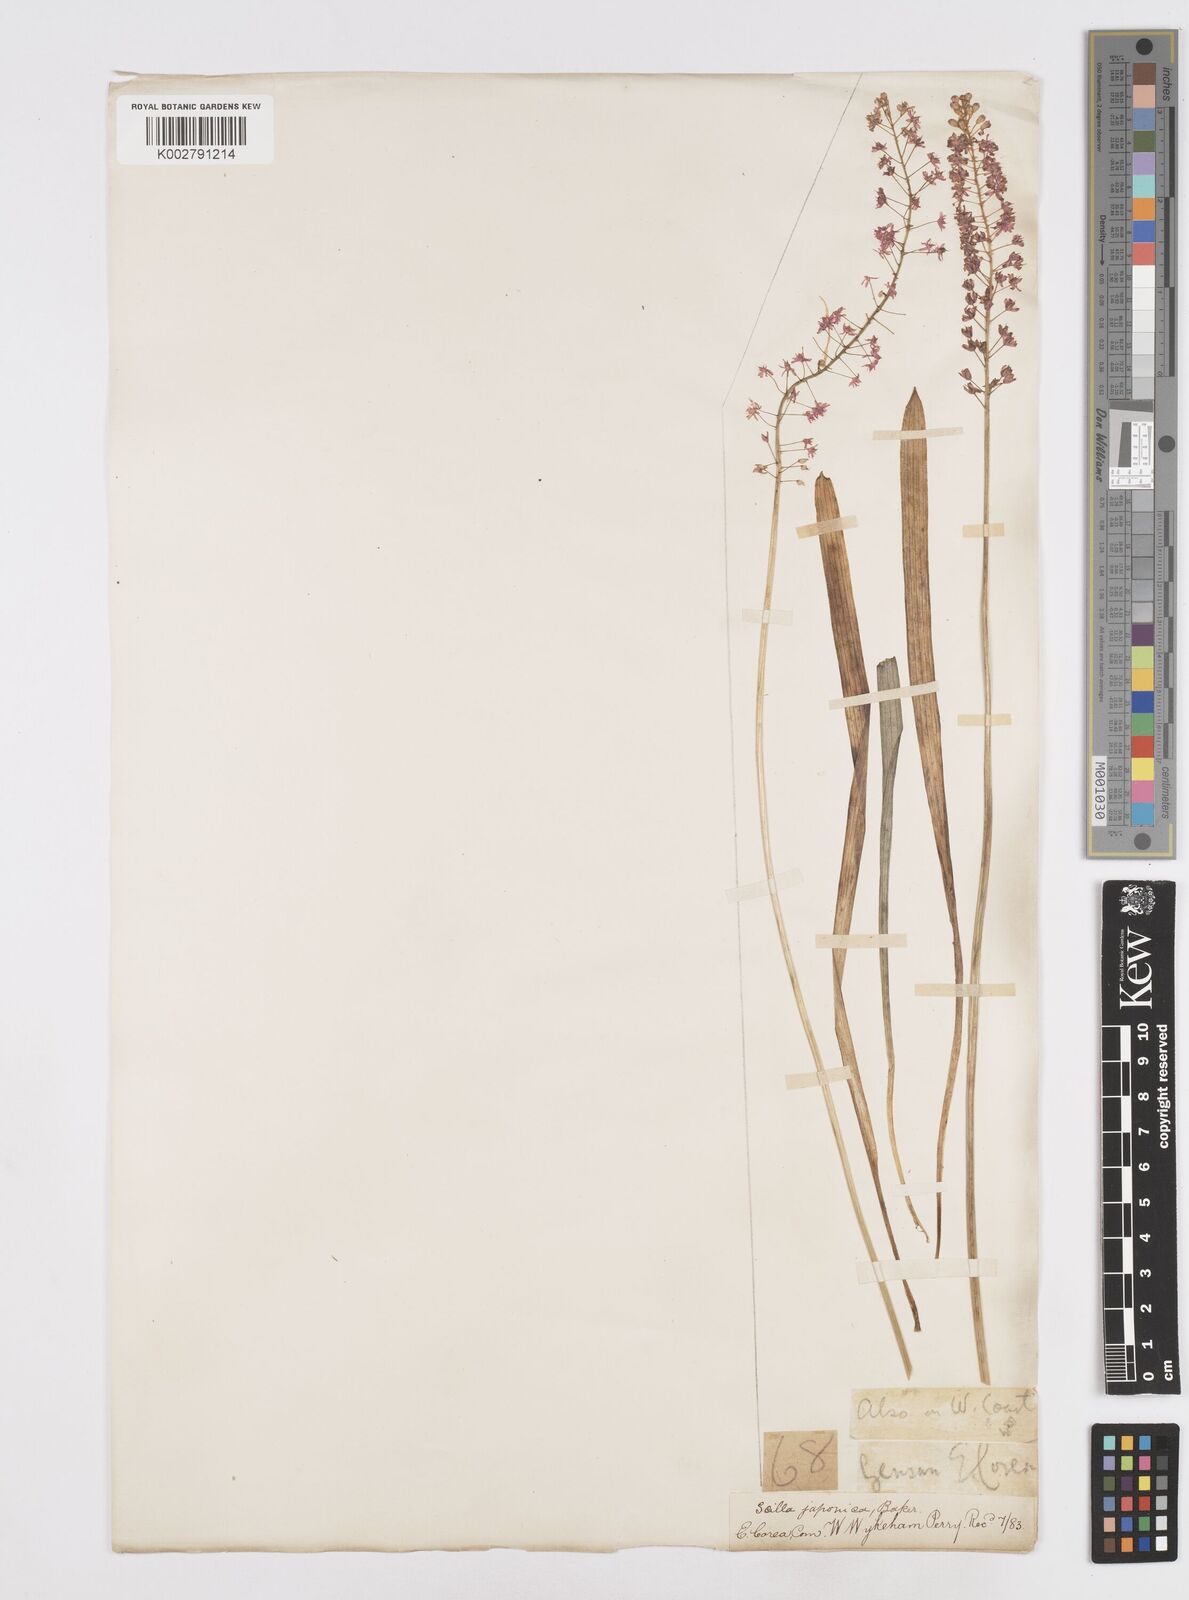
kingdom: Plantae
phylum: Tracheophyta
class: Liliopsida
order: Liliales
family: Melanthiaceae
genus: Helonias
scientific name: Helonias breviscapa
